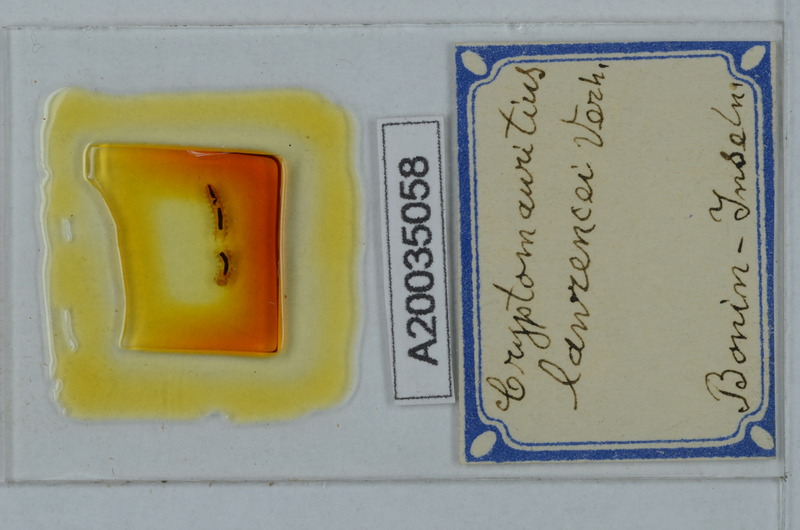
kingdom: Animalia
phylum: Arthropoda
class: Diplopoda
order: Polydesmida
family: Cryptodesmidae
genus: Cryptodesmus
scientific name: Cryptodesmus
